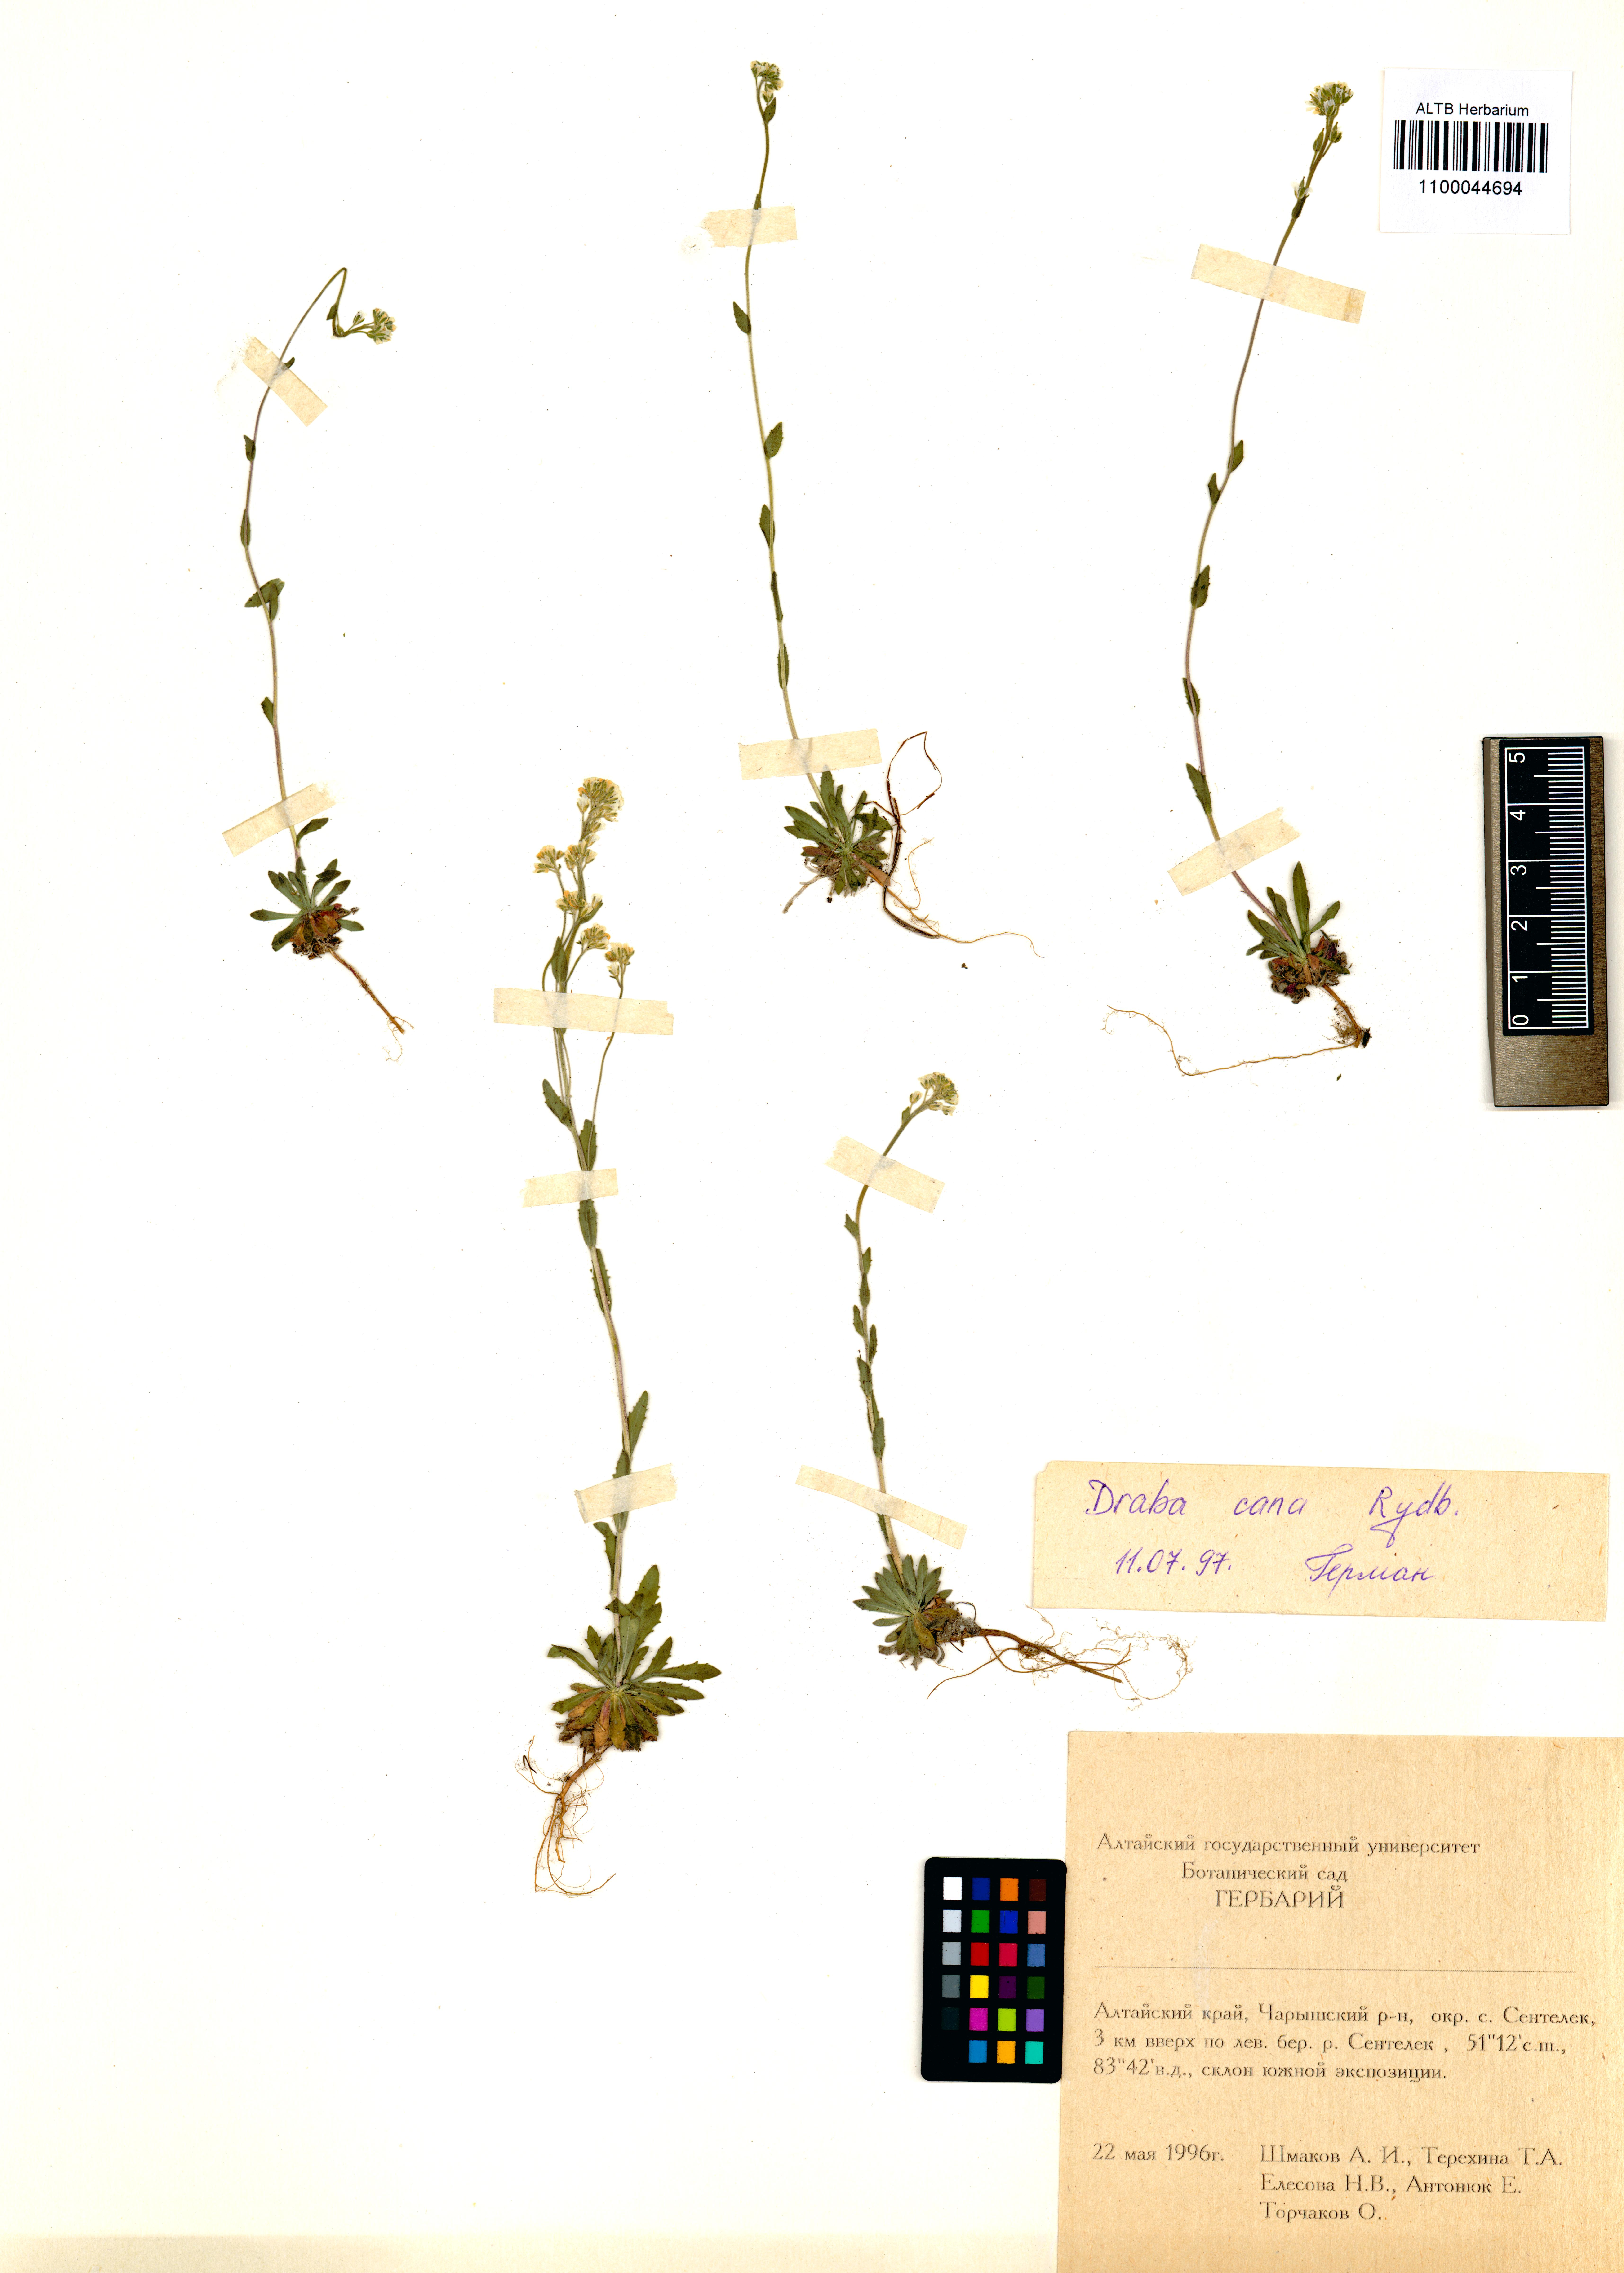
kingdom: Plantae
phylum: Tracheophyta
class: Magnoliopsida
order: Brassicales
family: Brassicaceae
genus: Draba
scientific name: Draba cana
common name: Hoary draba
